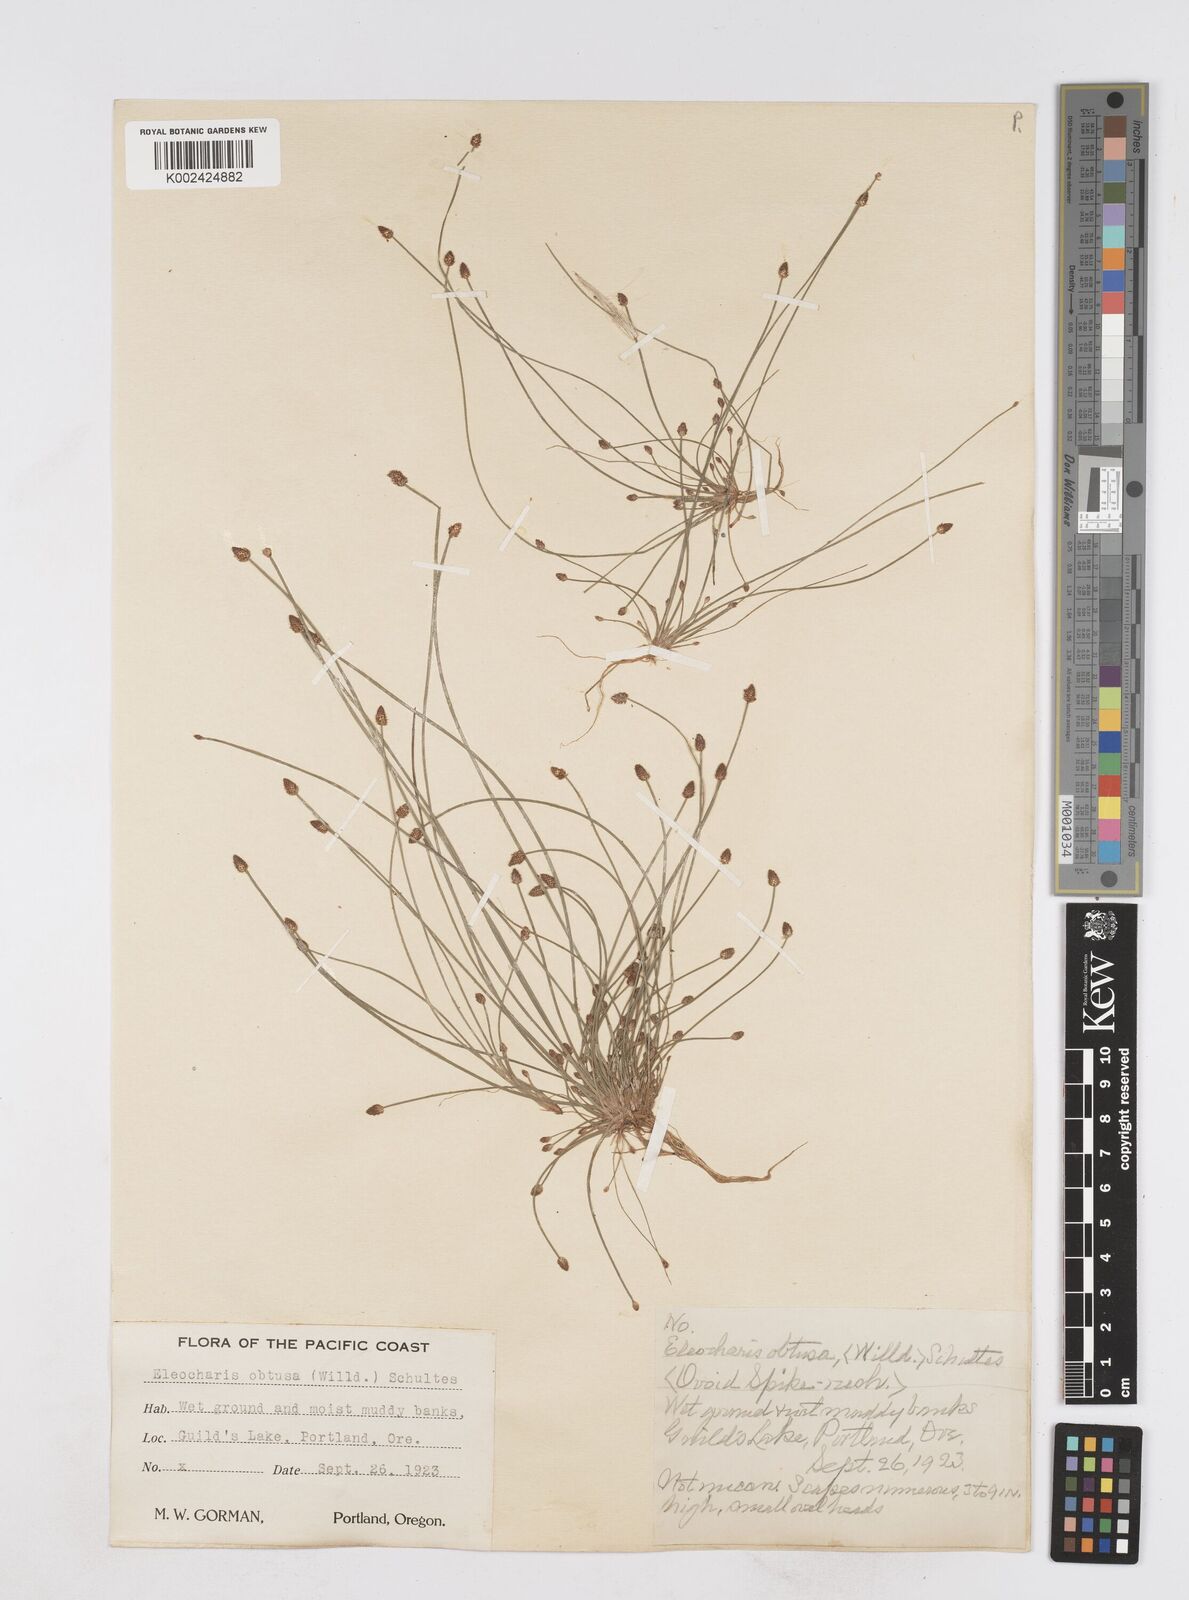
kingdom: Plantae
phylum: Tracheophyta
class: Liliopsida
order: Poales
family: Cyperaceae
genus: Eleocharis
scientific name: Eleocharis obtusa
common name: Blunt spikerush
